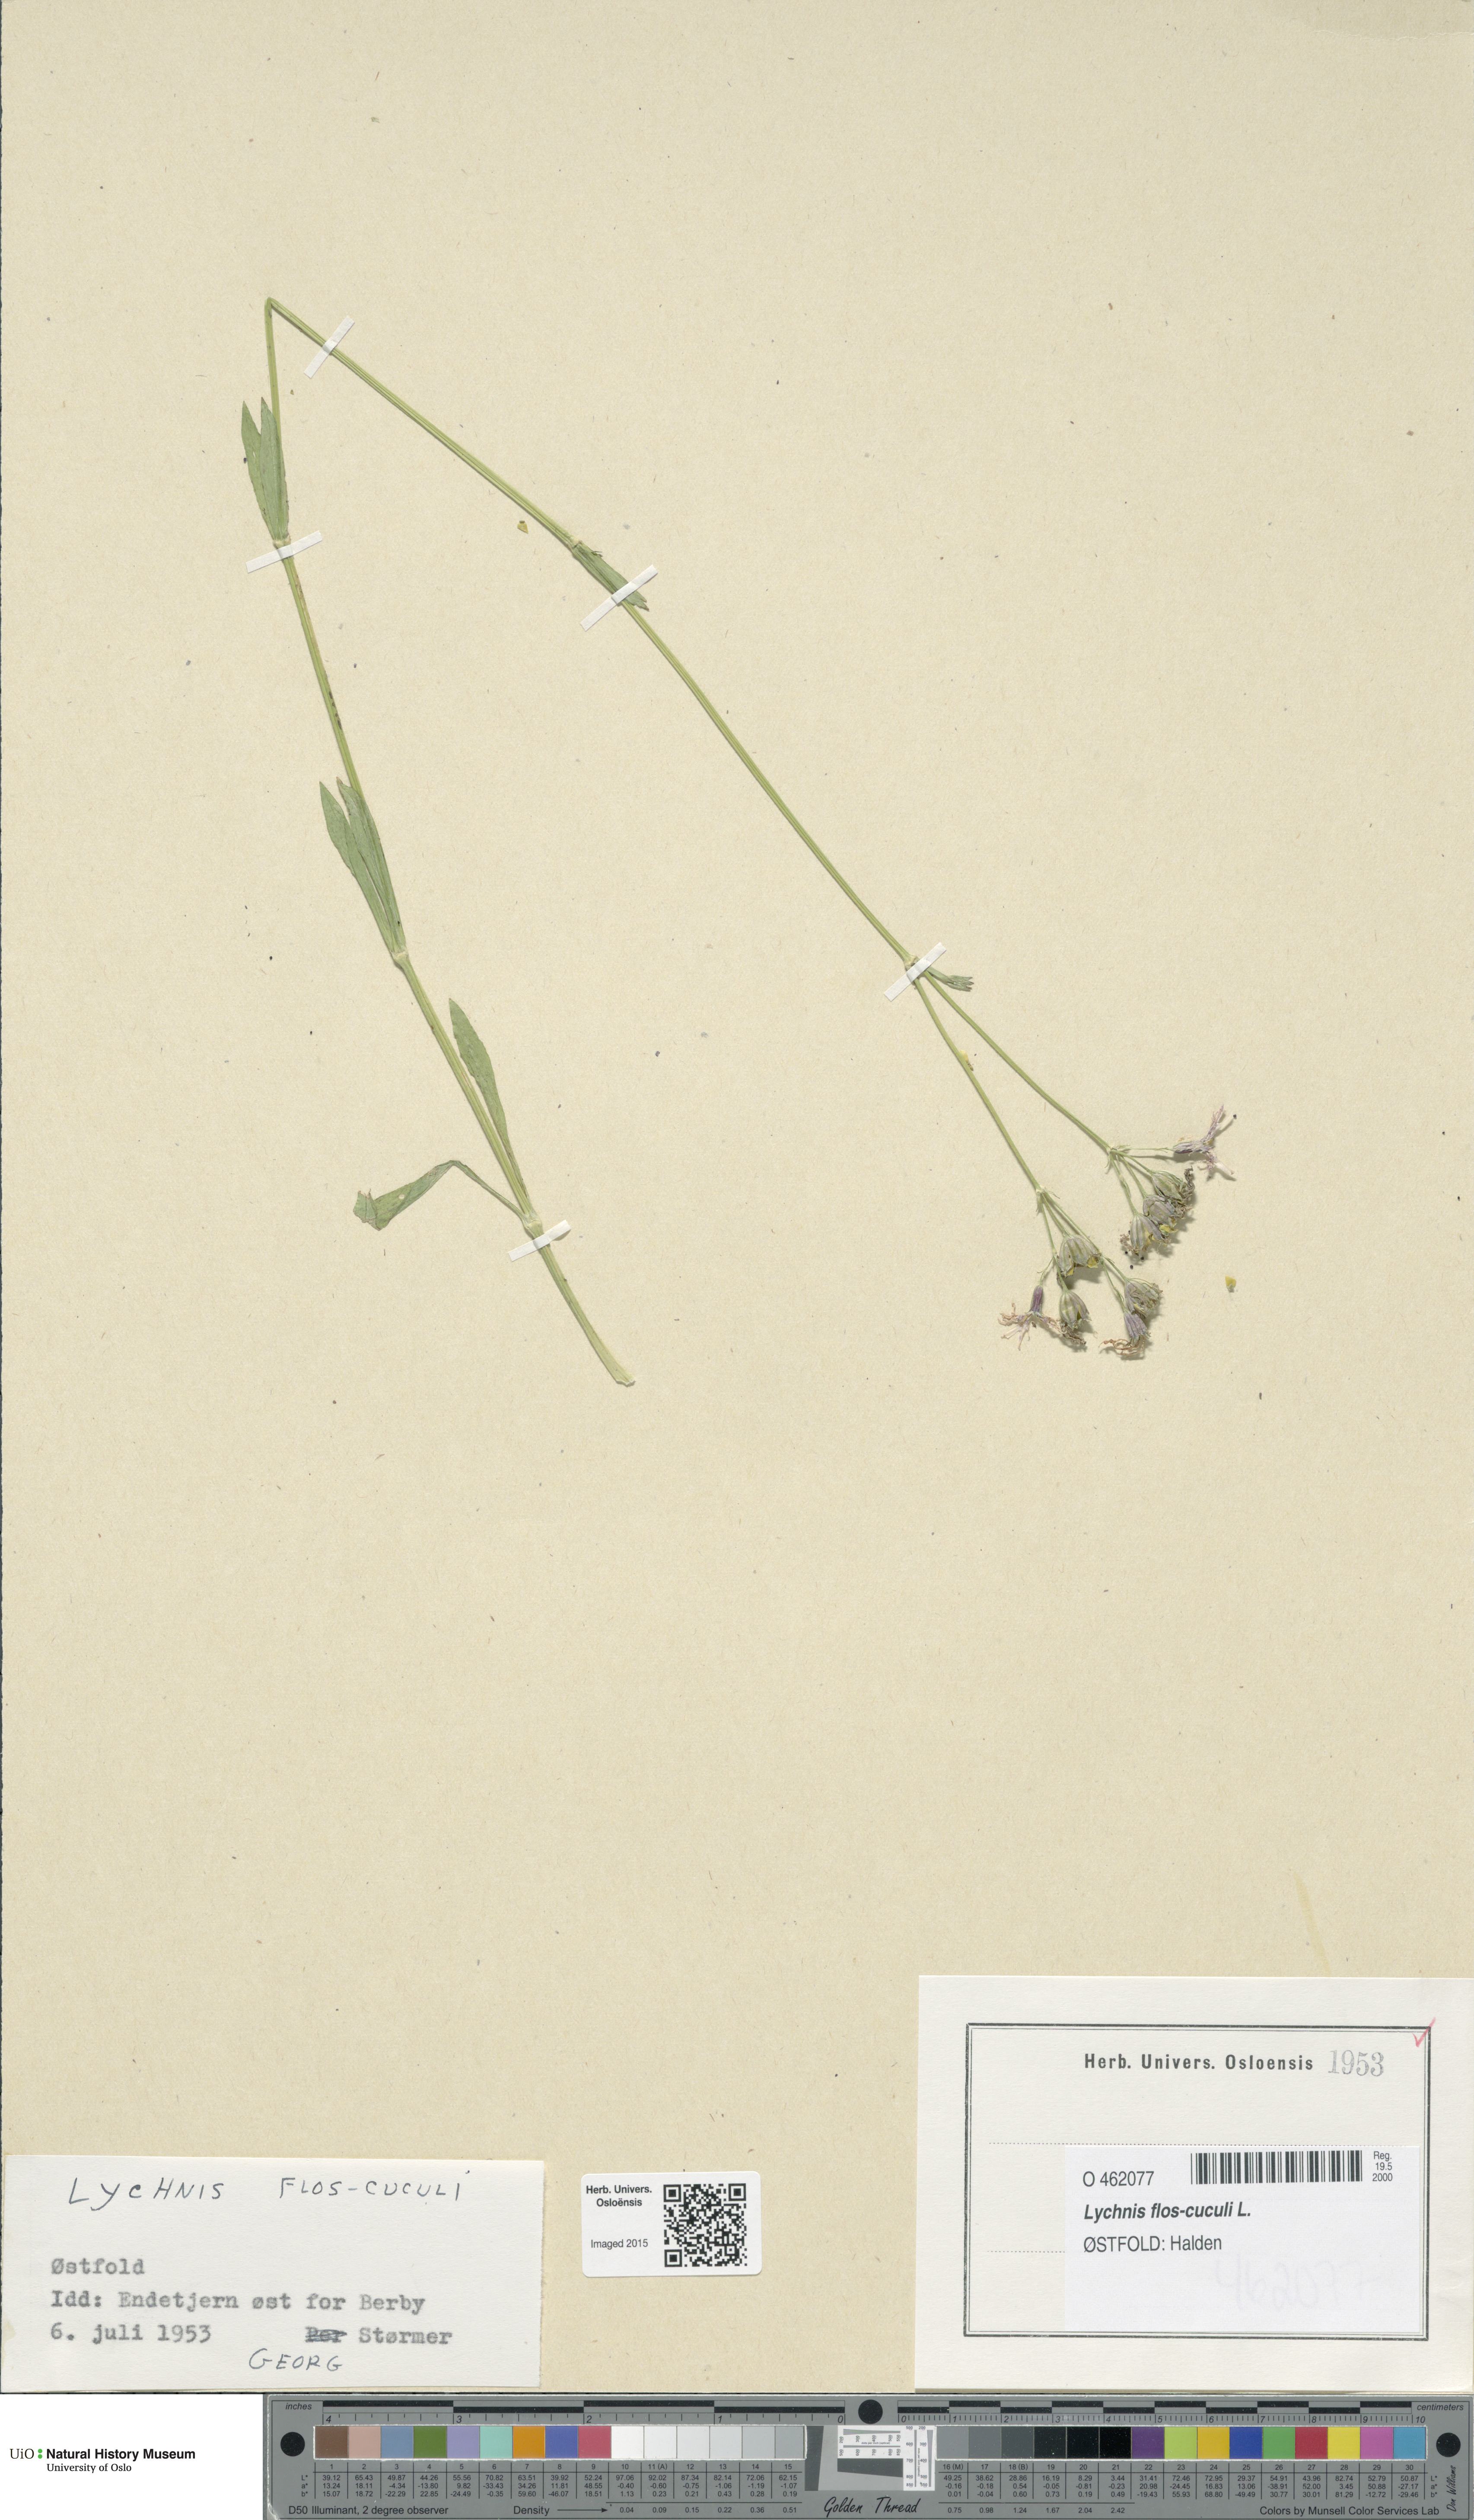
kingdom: Plantae
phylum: Tracheophyta
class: Magnoliopsida
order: Caryophyllales
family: Caryophyllaceae
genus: Silene
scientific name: Silene flos-cuculi
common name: Ragged-robin
